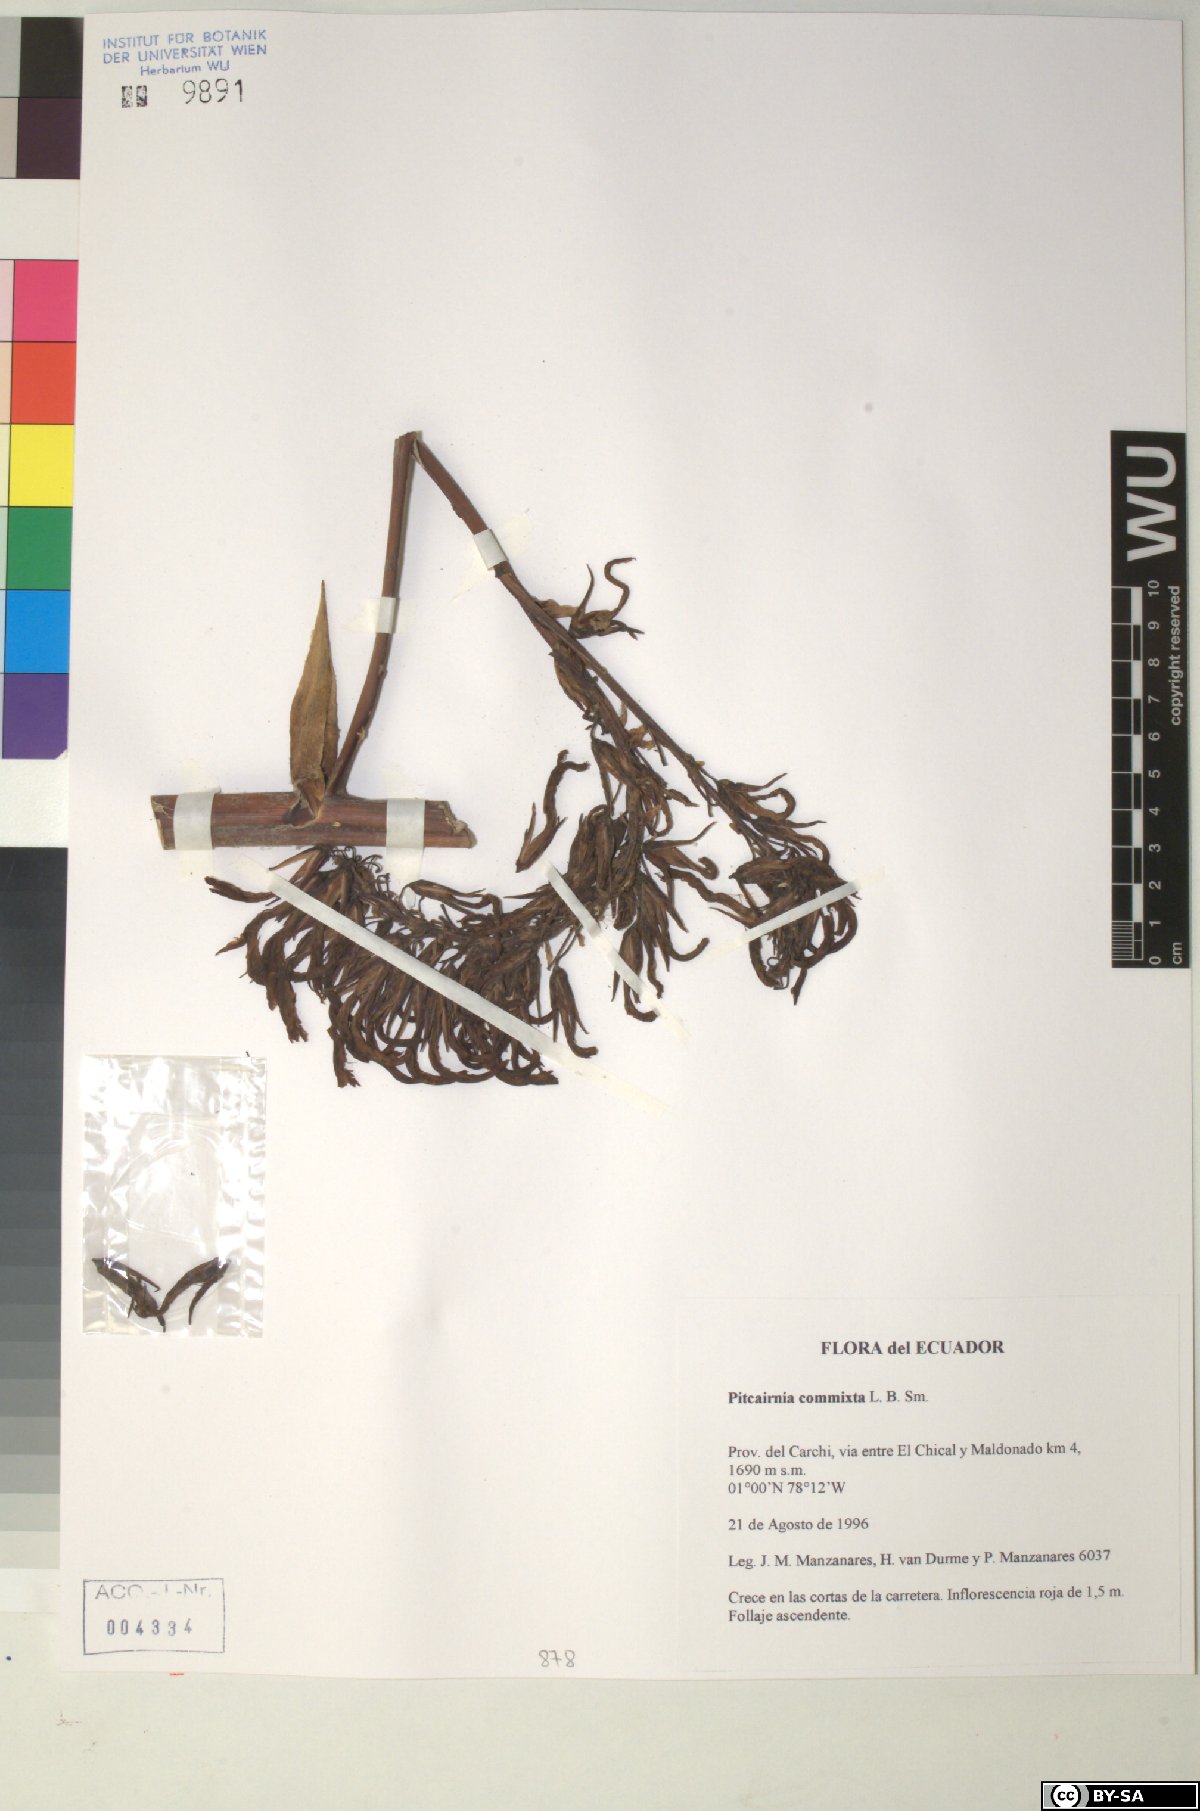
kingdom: Plantae
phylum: Tracheophyta
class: Liliopsida
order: Poales
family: Bromeliaceae
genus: Pitcairnia
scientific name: Pitcairnia commixta
